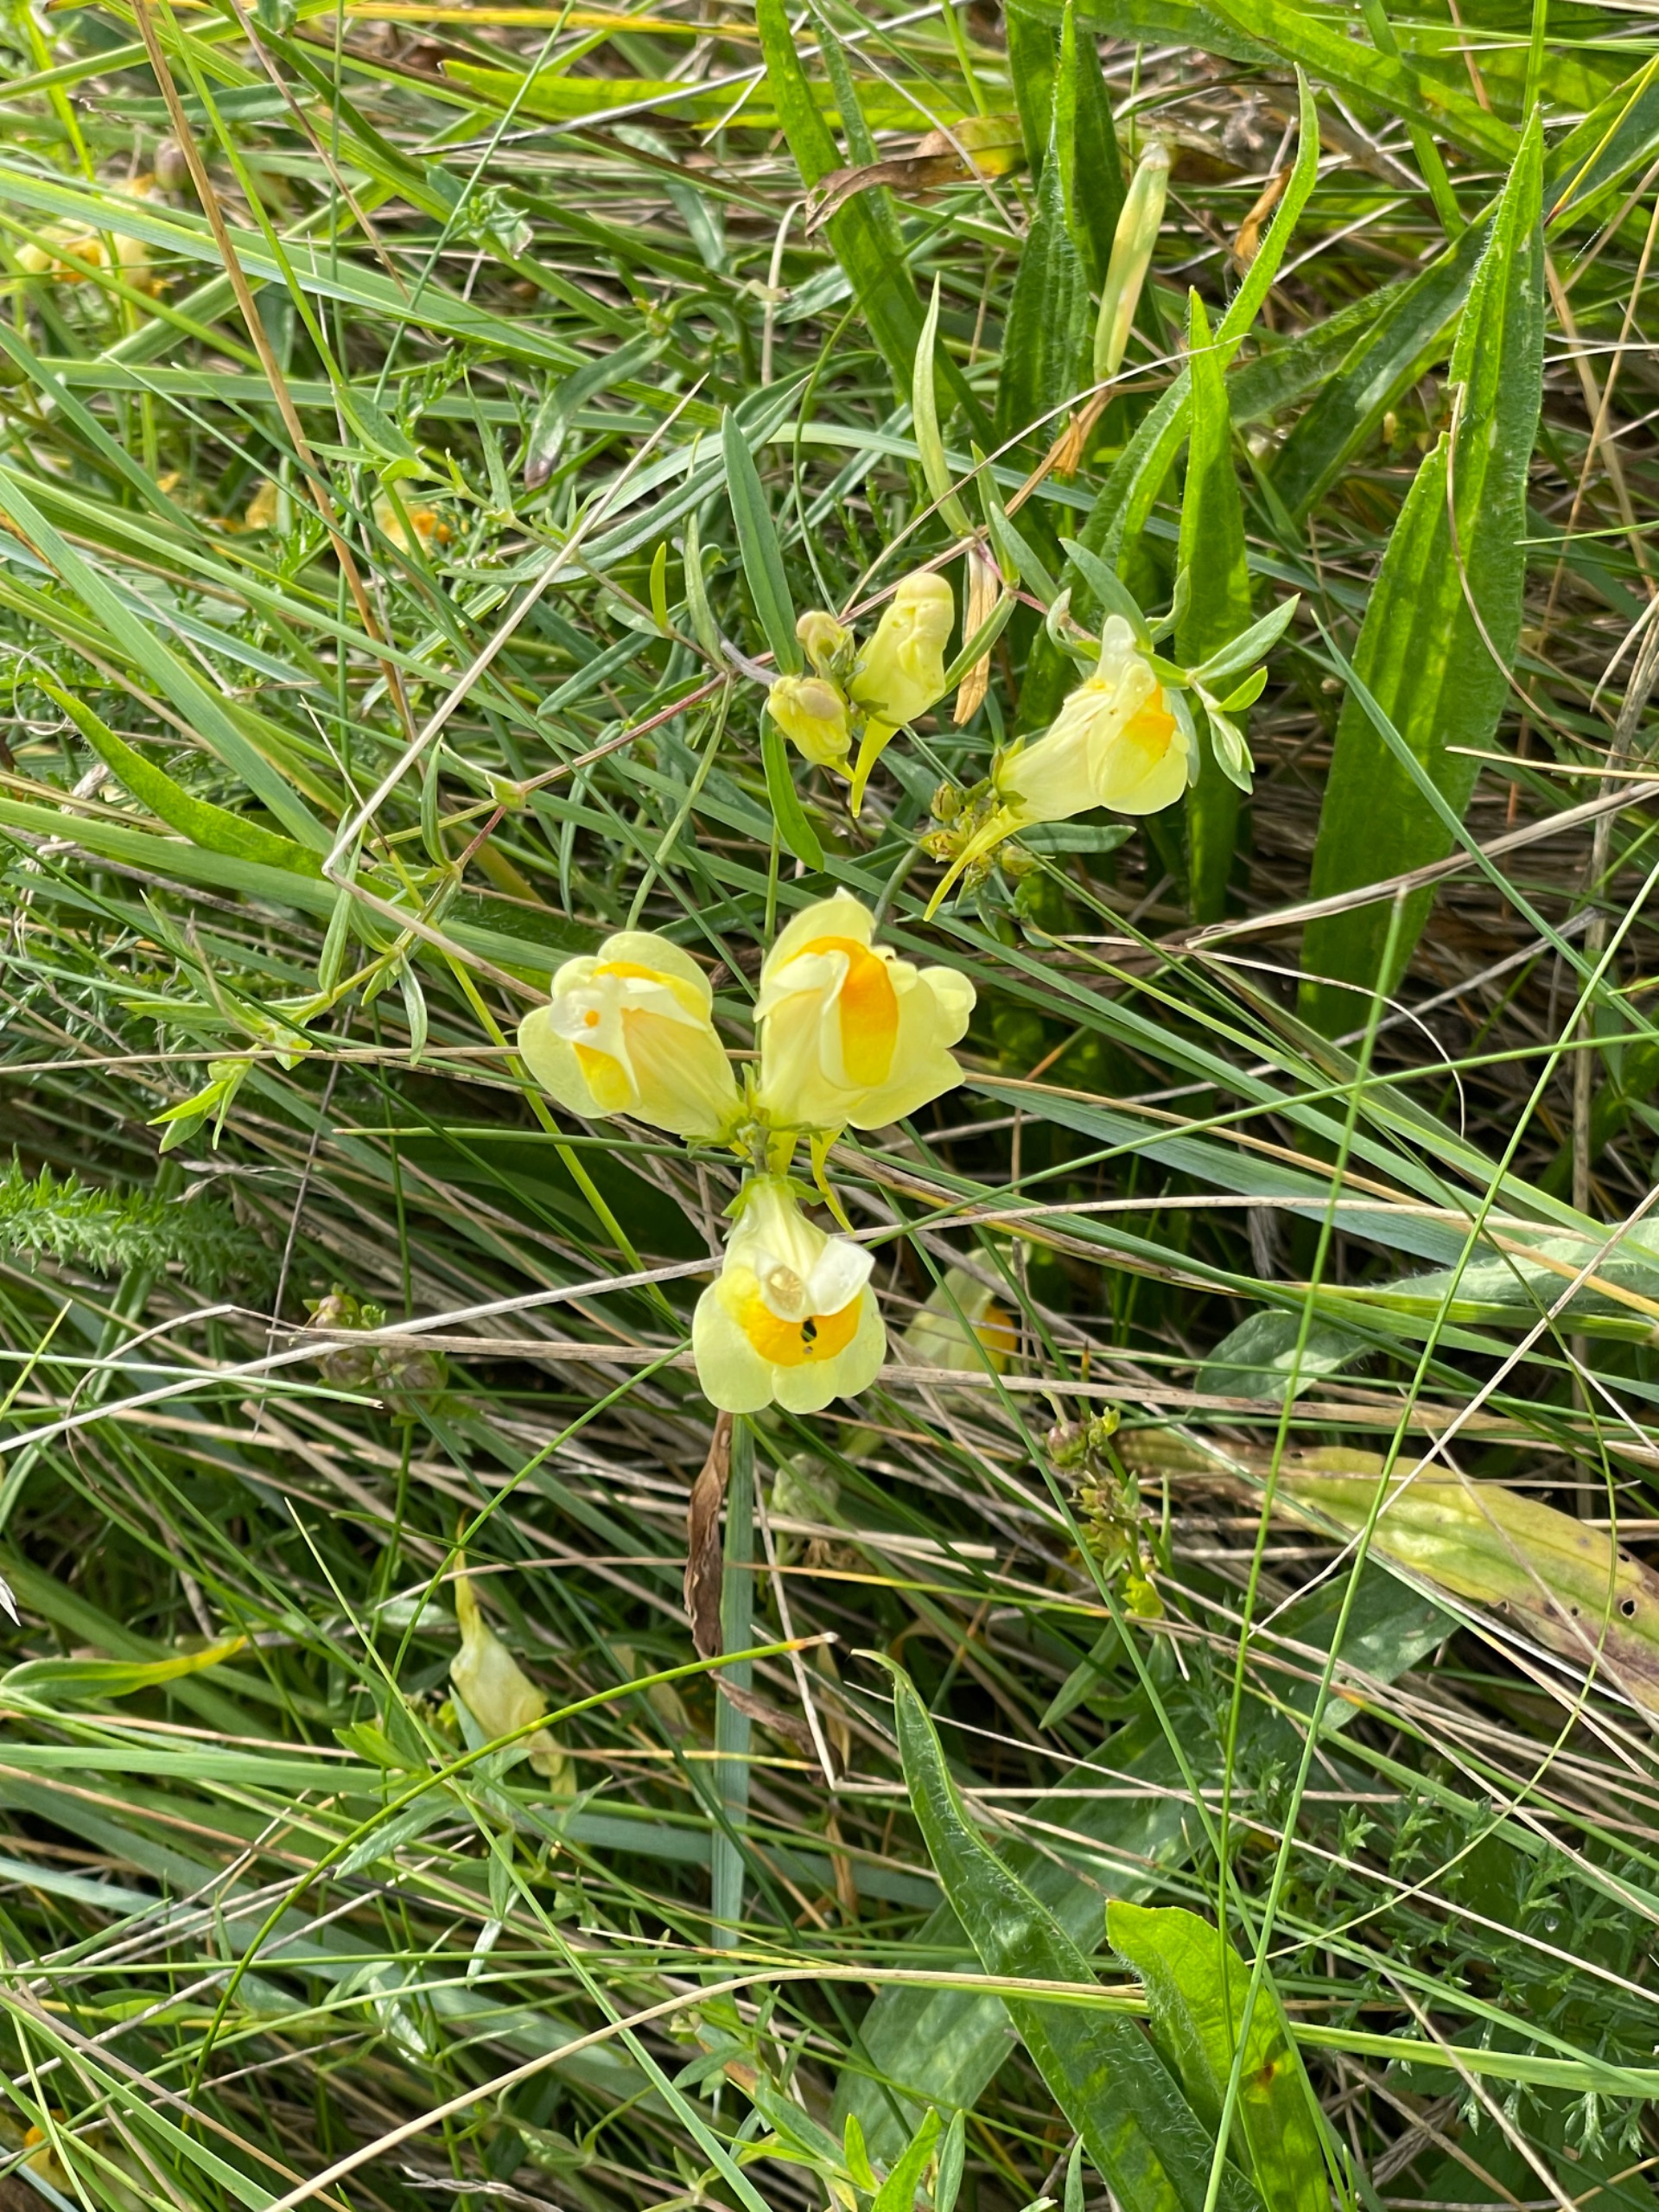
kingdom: Plantae
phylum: Tracheophyta
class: Magnoliopsida
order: Lamiales
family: Plantaginaceae
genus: Linaria
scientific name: Linaria vulgaris
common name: Almindelig torskemund
